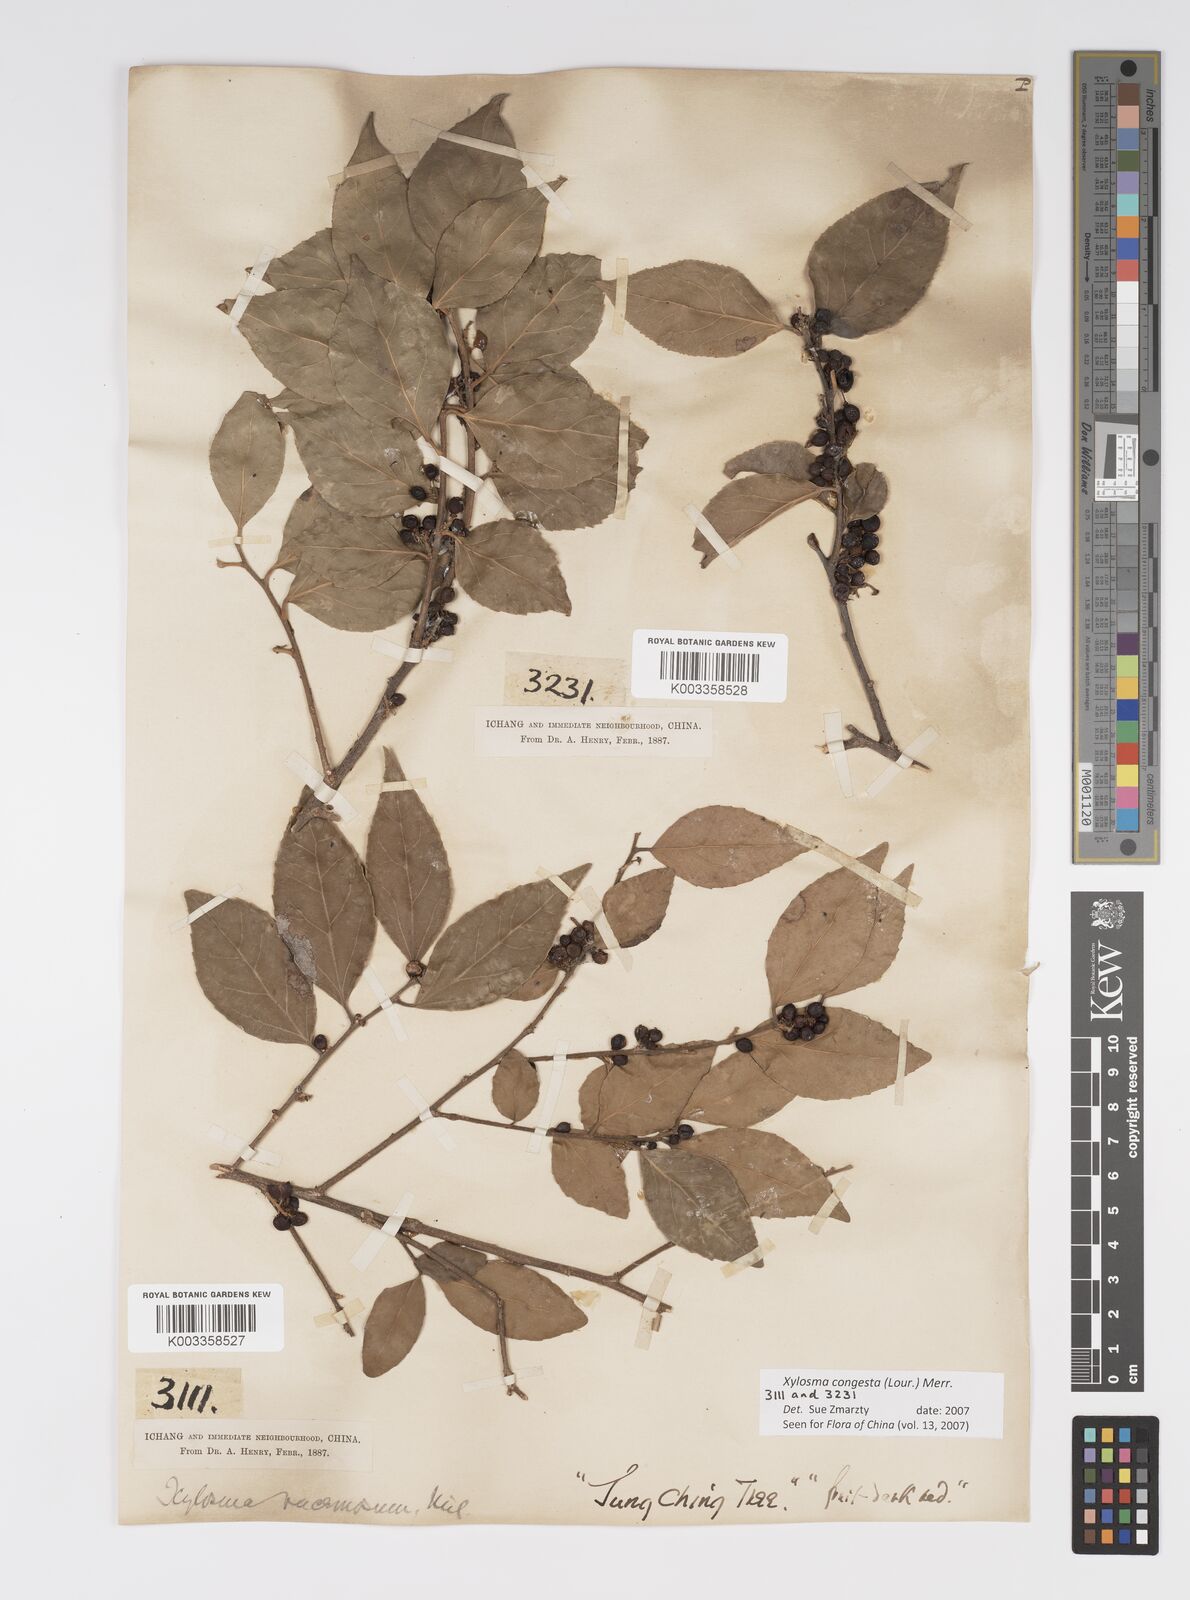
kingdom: Plantae
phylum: Tracheophyta
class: Magnoliopsida
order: Malpighiales
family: Salicaceae
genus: Xylosma
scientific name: Xylosma racemosum
